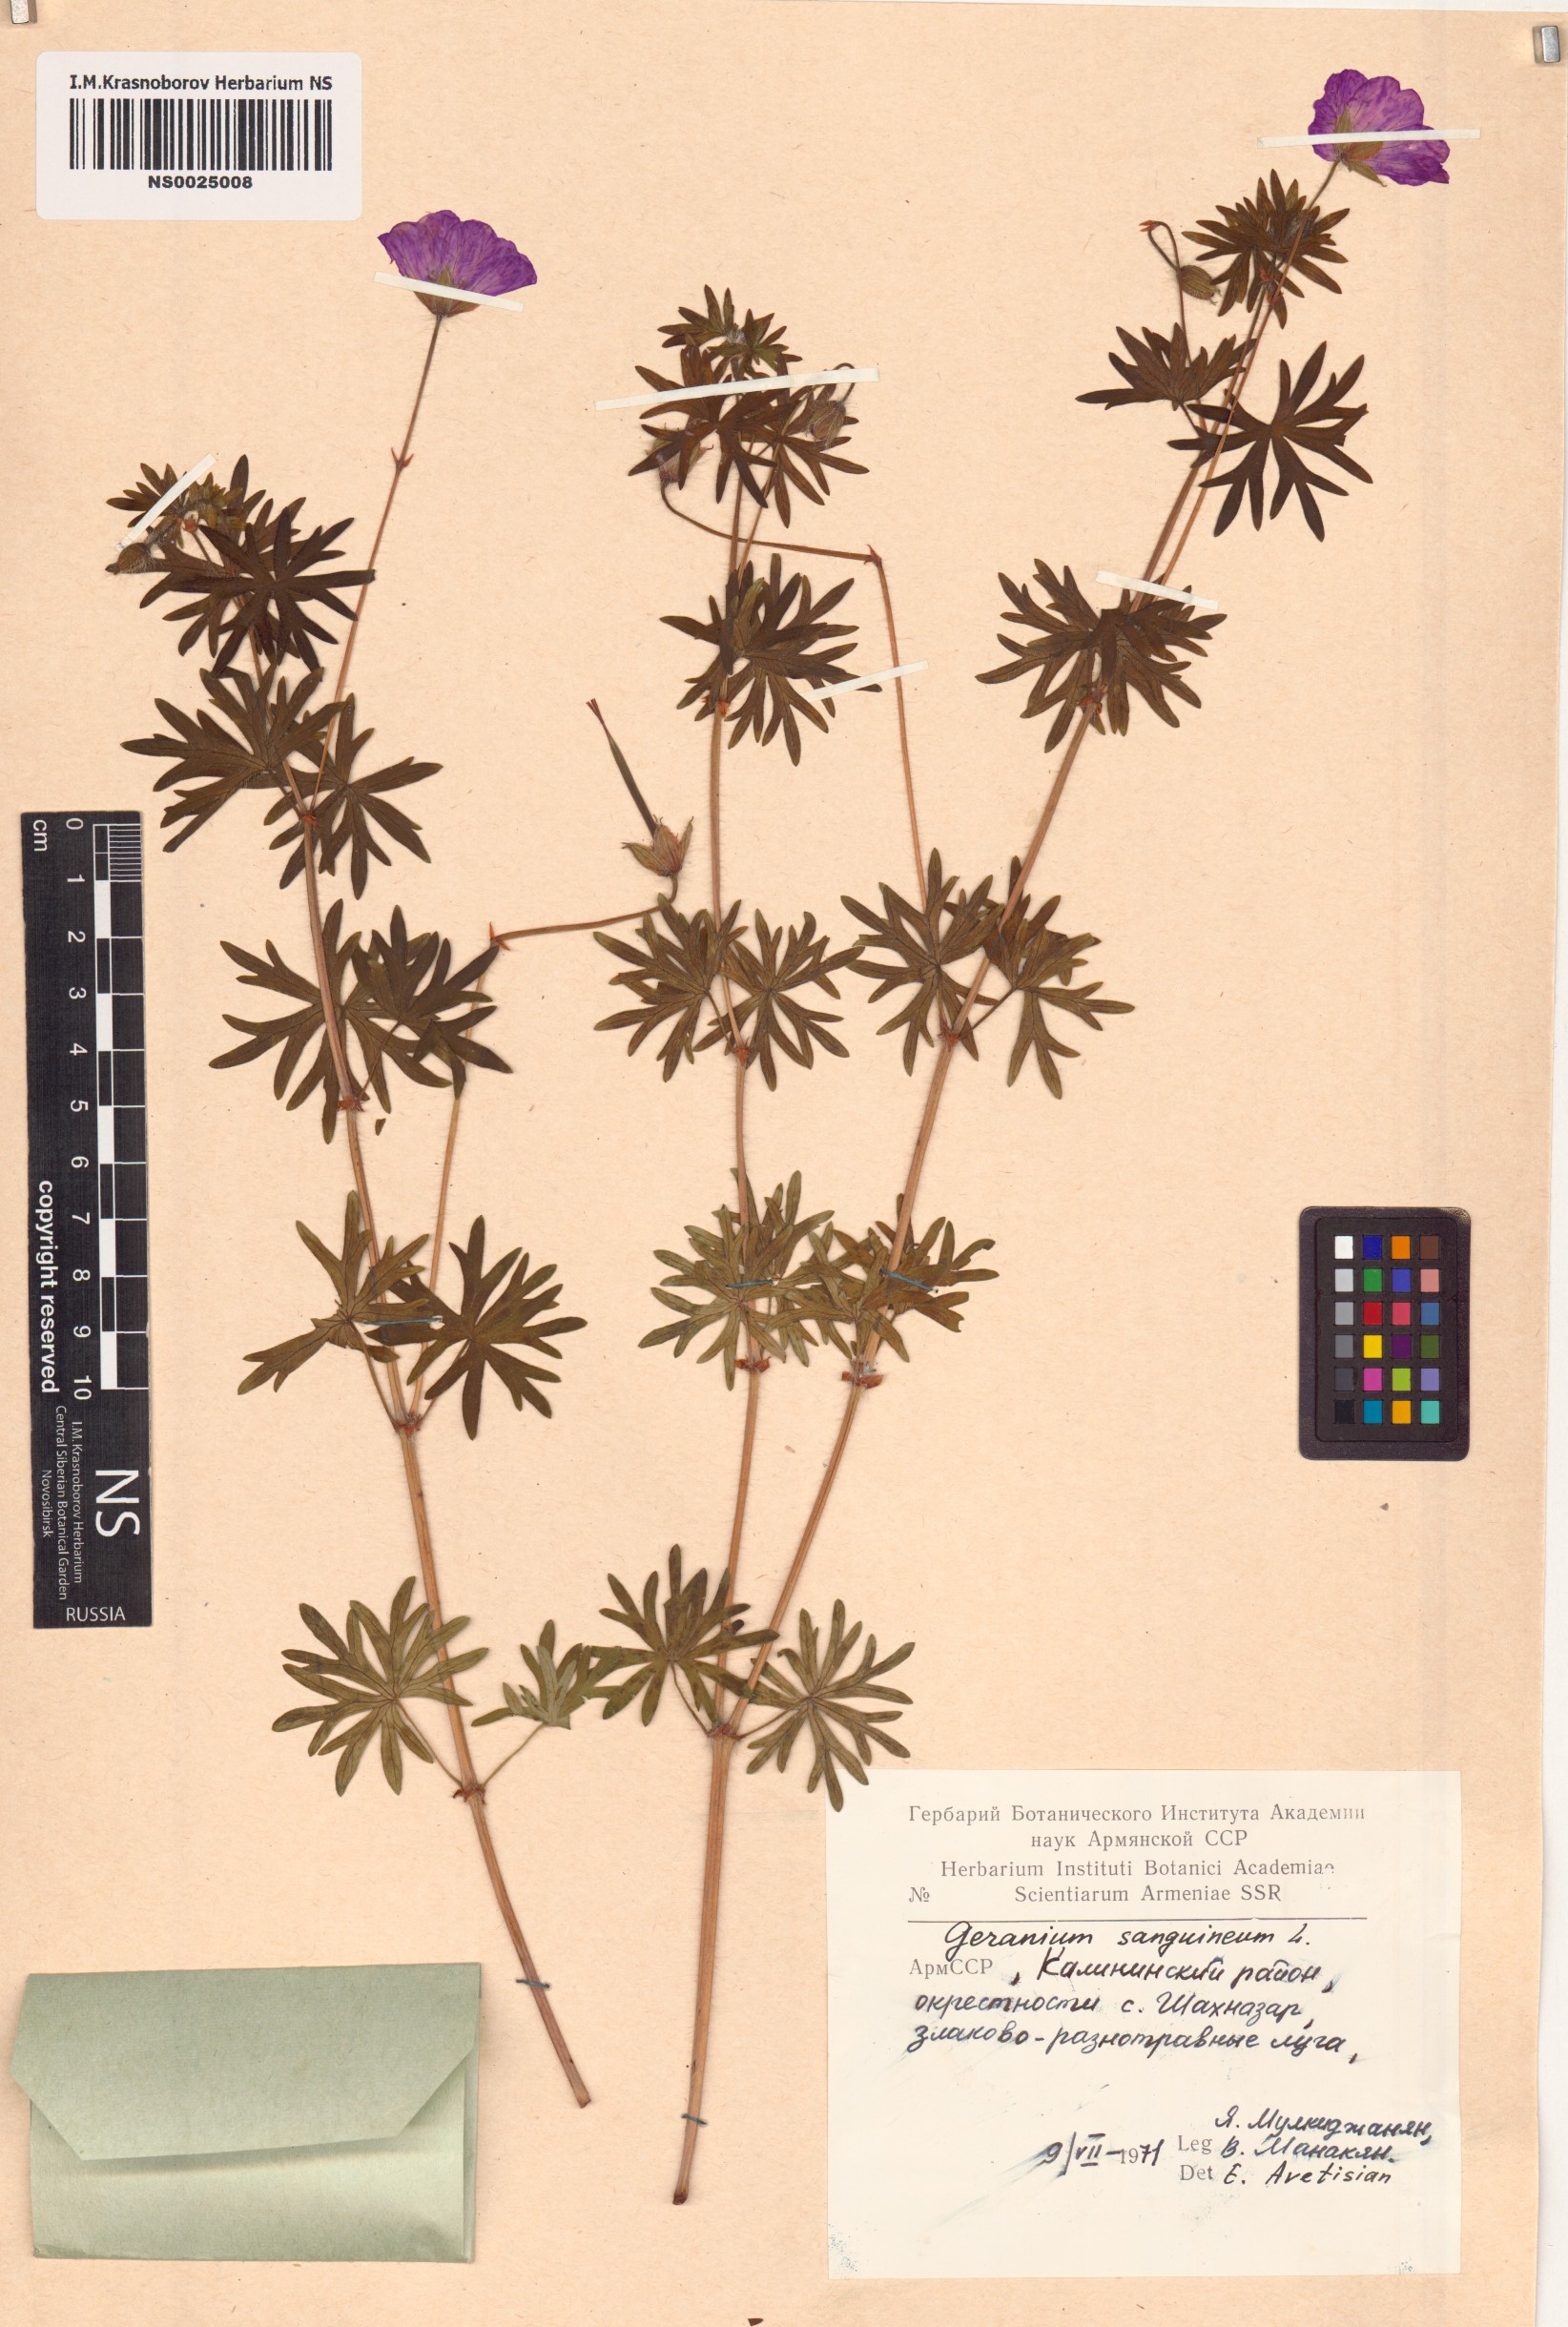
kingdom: Plantae
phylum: Tracheophyta
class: Magnoliopsida
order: Geraniales
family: Geraniaceae
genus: Geranium
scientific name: Geranium sanguineum
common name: Bloody crane's-bill
